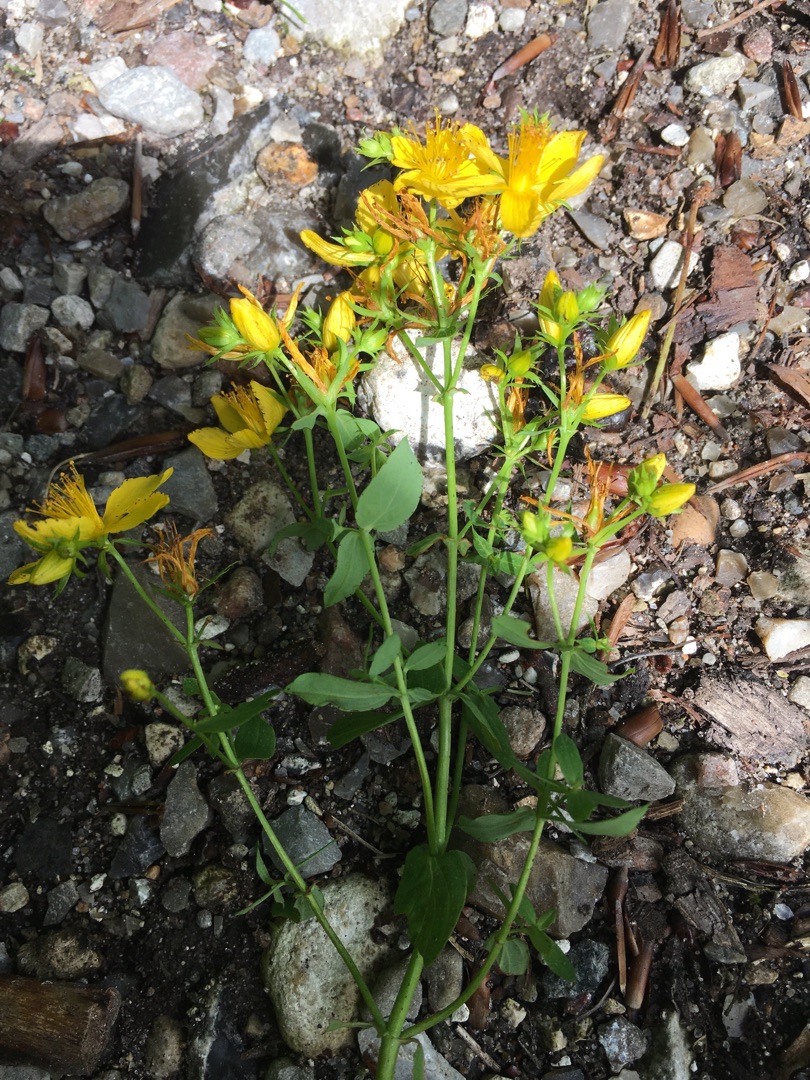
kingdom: Plantae
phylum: Tracheophyta
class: Magnoliopsida
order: Malpighiales
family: Hypericaceae
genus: Hypericum
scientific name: Hypericum perforatum
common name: Prikbladet perikon
